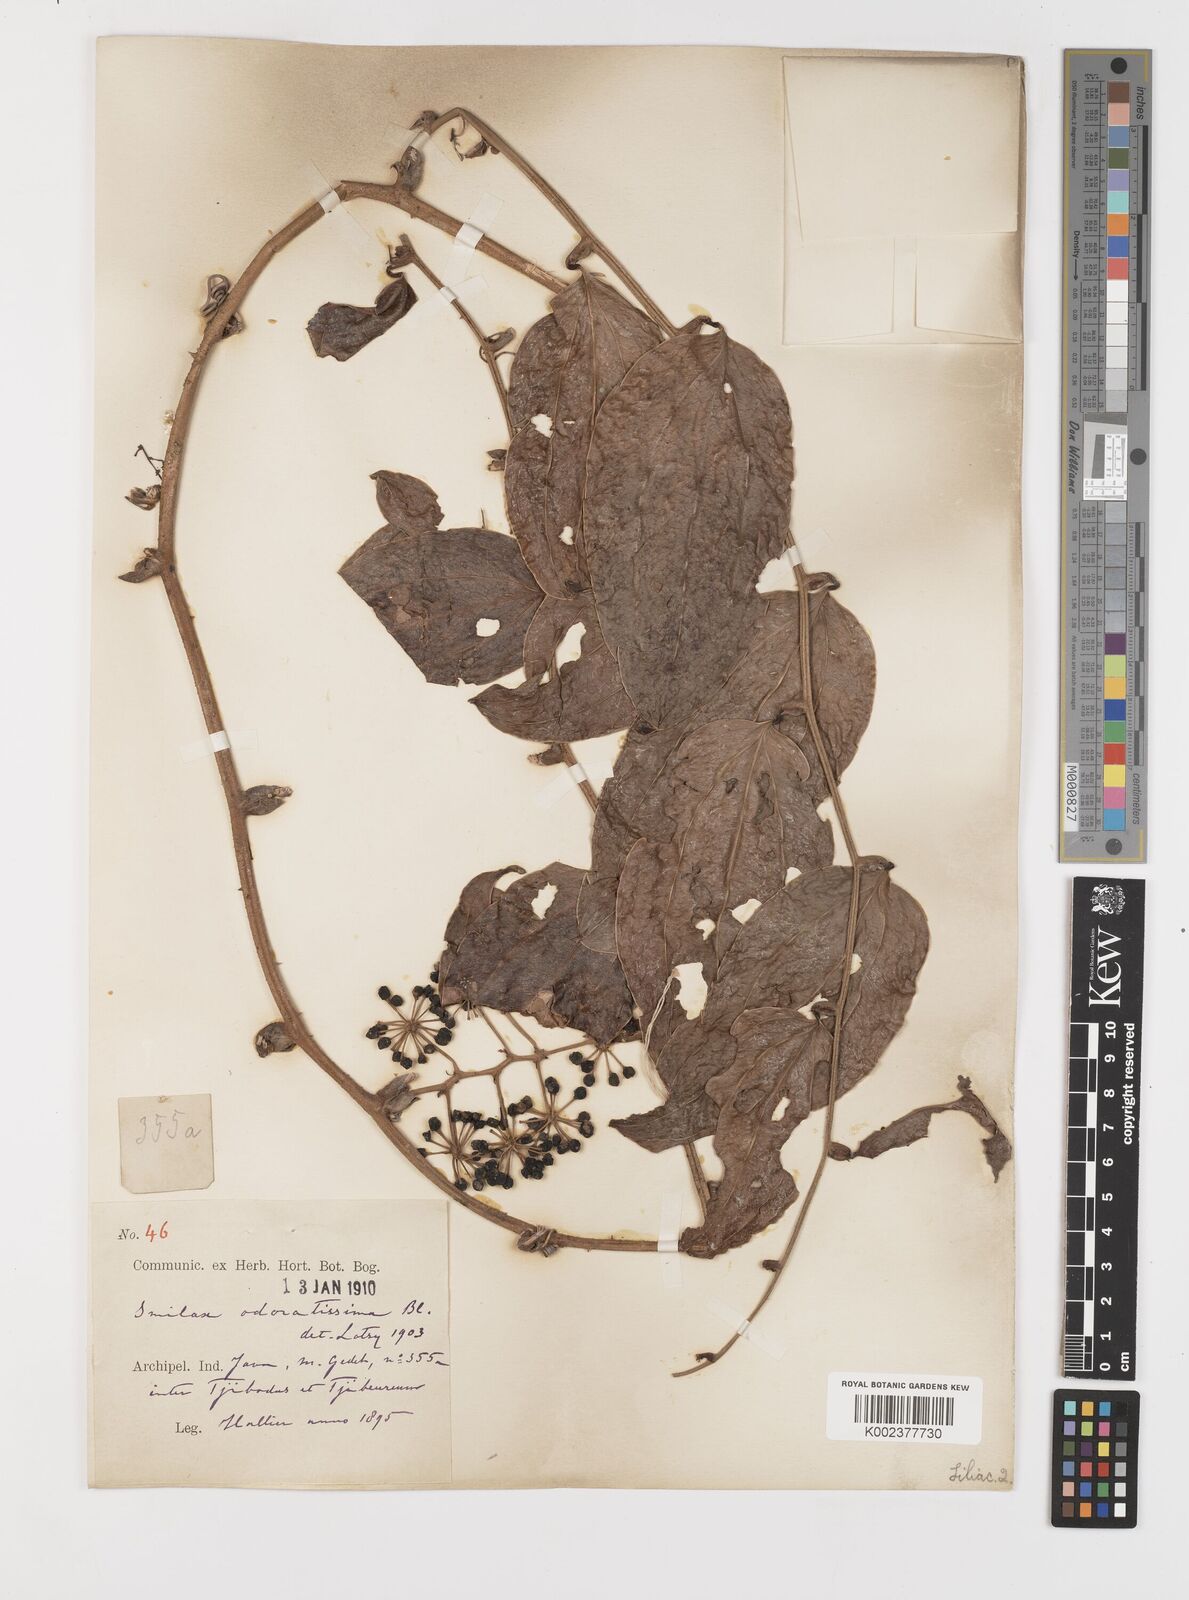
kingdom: Plantae
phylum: Tracheophyta
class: Liliopsida
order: Liliales
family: Smilacaceae
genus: Smilax
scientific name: Smilax odoratissima
